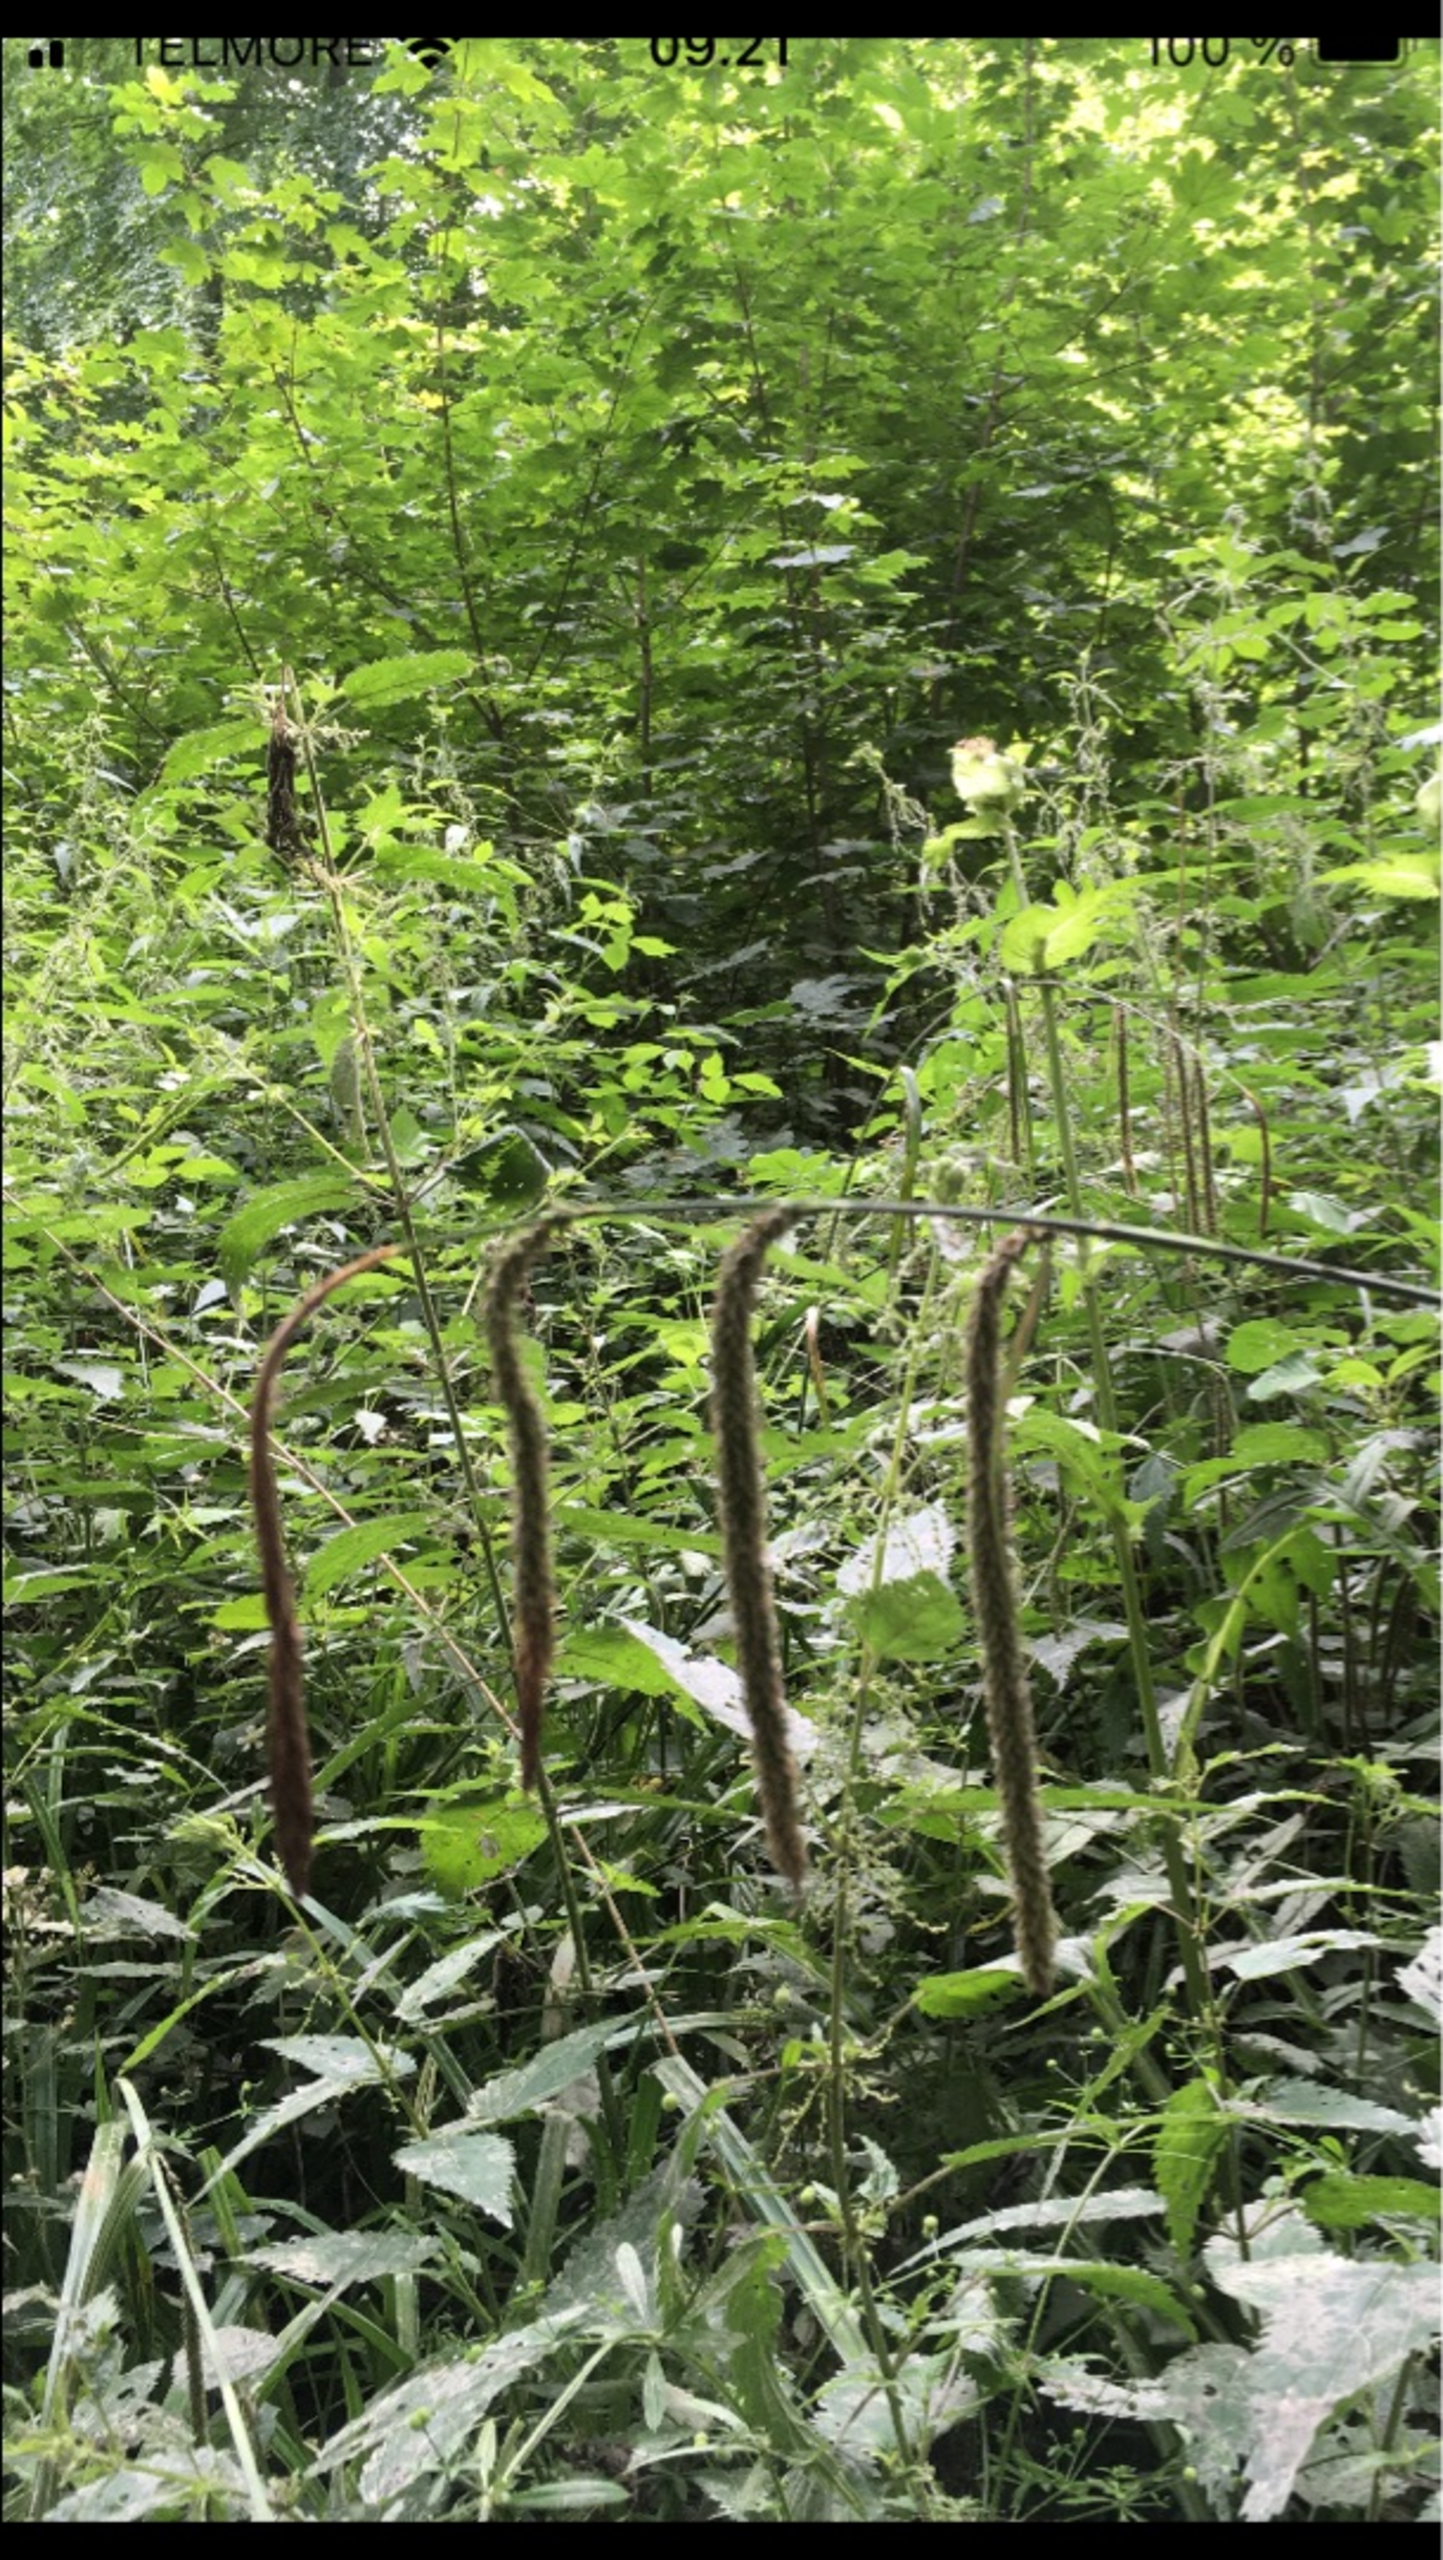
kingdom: Plantae
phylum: Tracheophyta
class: Liliopsida
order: Poales
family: Cyperaceae
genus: Carex
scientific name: Carex pendula
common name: Kæmpe-star
